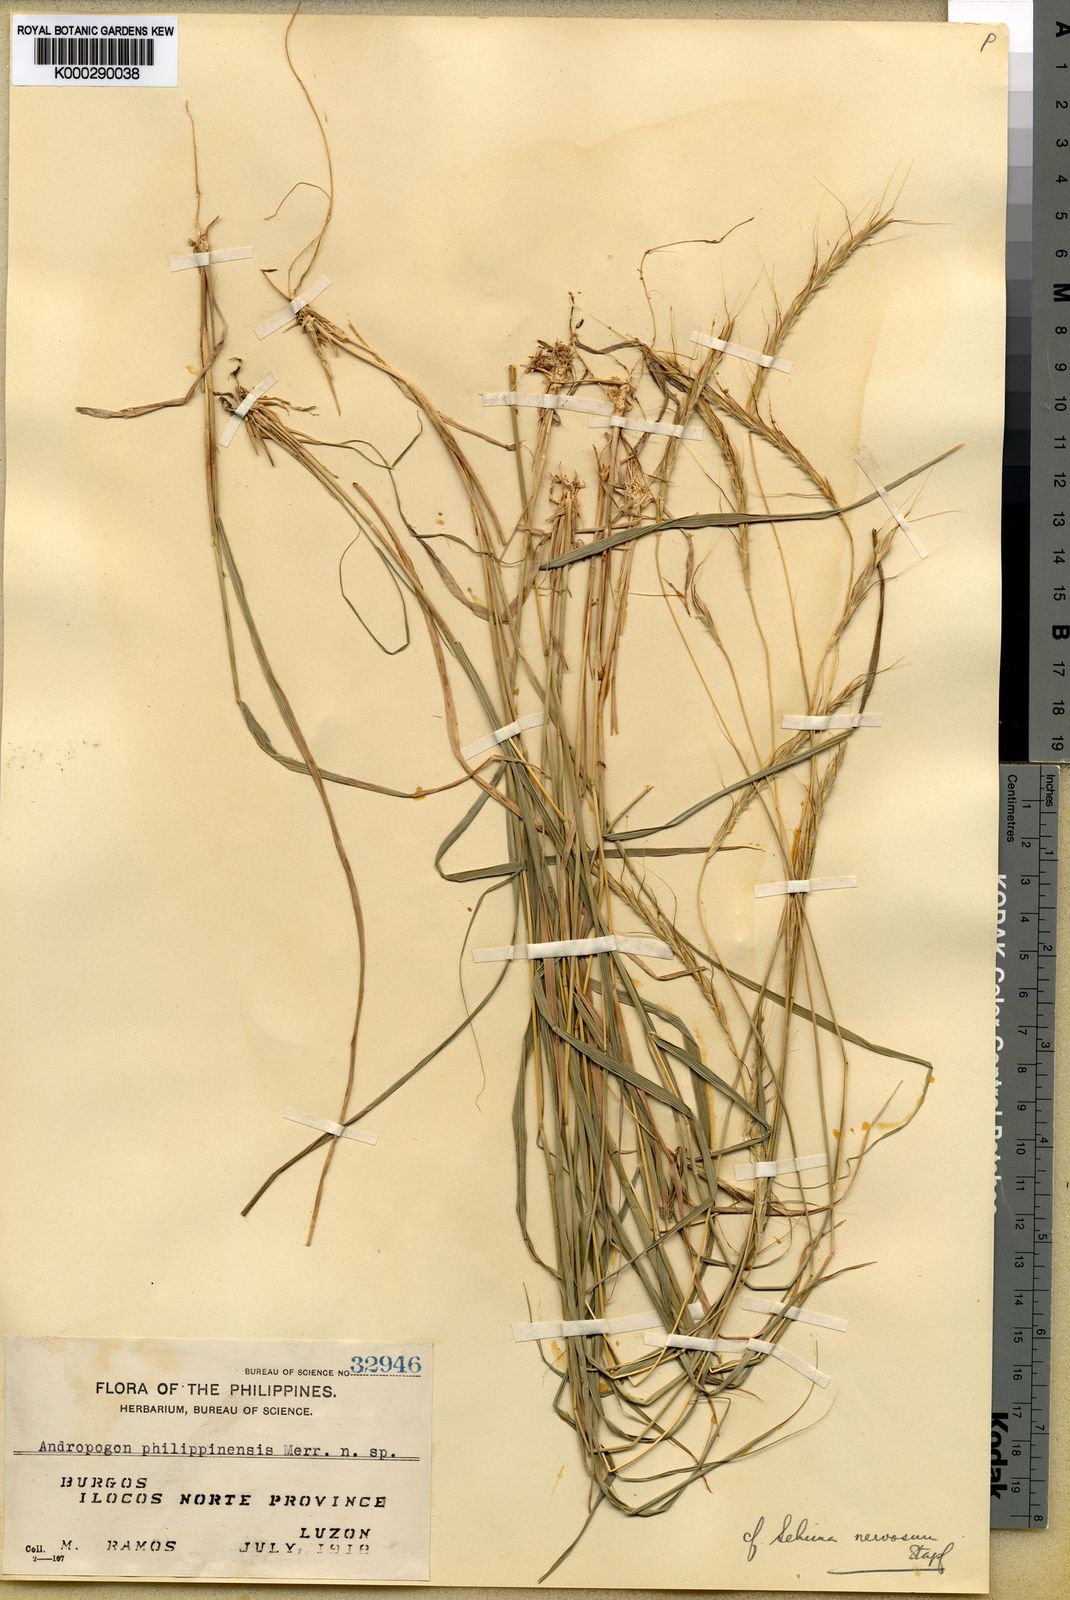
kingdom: Plantae
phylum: Tracheophyta
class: Liliopsida
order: Poales
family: Poaceae
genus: Sehima
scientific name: Sehima nervosa
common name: Rat-tail grass
